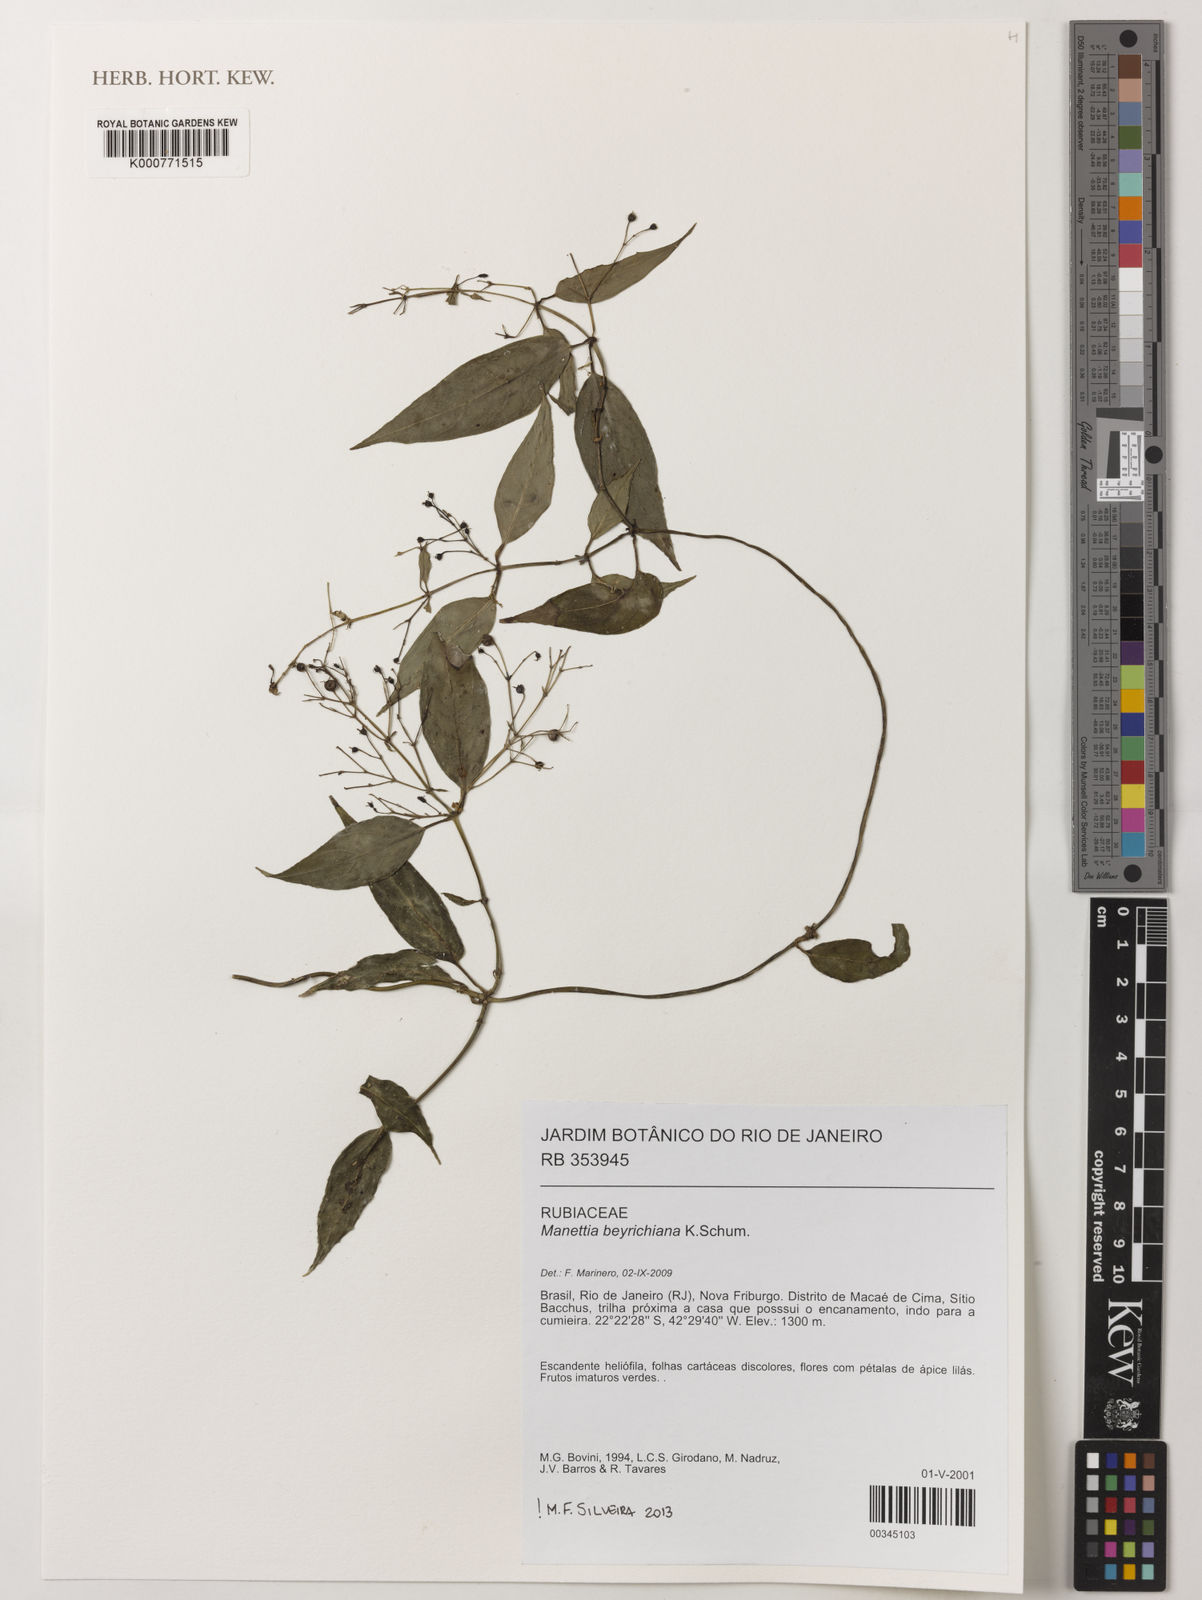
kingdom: Plantae
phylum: Tracheophyta
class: Magnoliopsida
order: Gentianales
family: Rubiaceae
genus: Manettia
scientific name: Manettia beyrichiana
